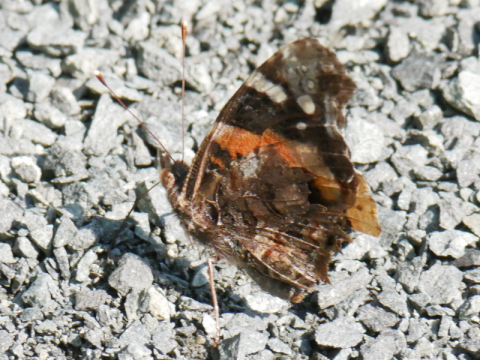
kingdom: Animalia
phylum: Arthropoda
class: Insecta
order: Lepidoptera
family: Nymphalidae
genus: Vanessa
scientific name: Vanessa atalanta
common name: Red Admiral
